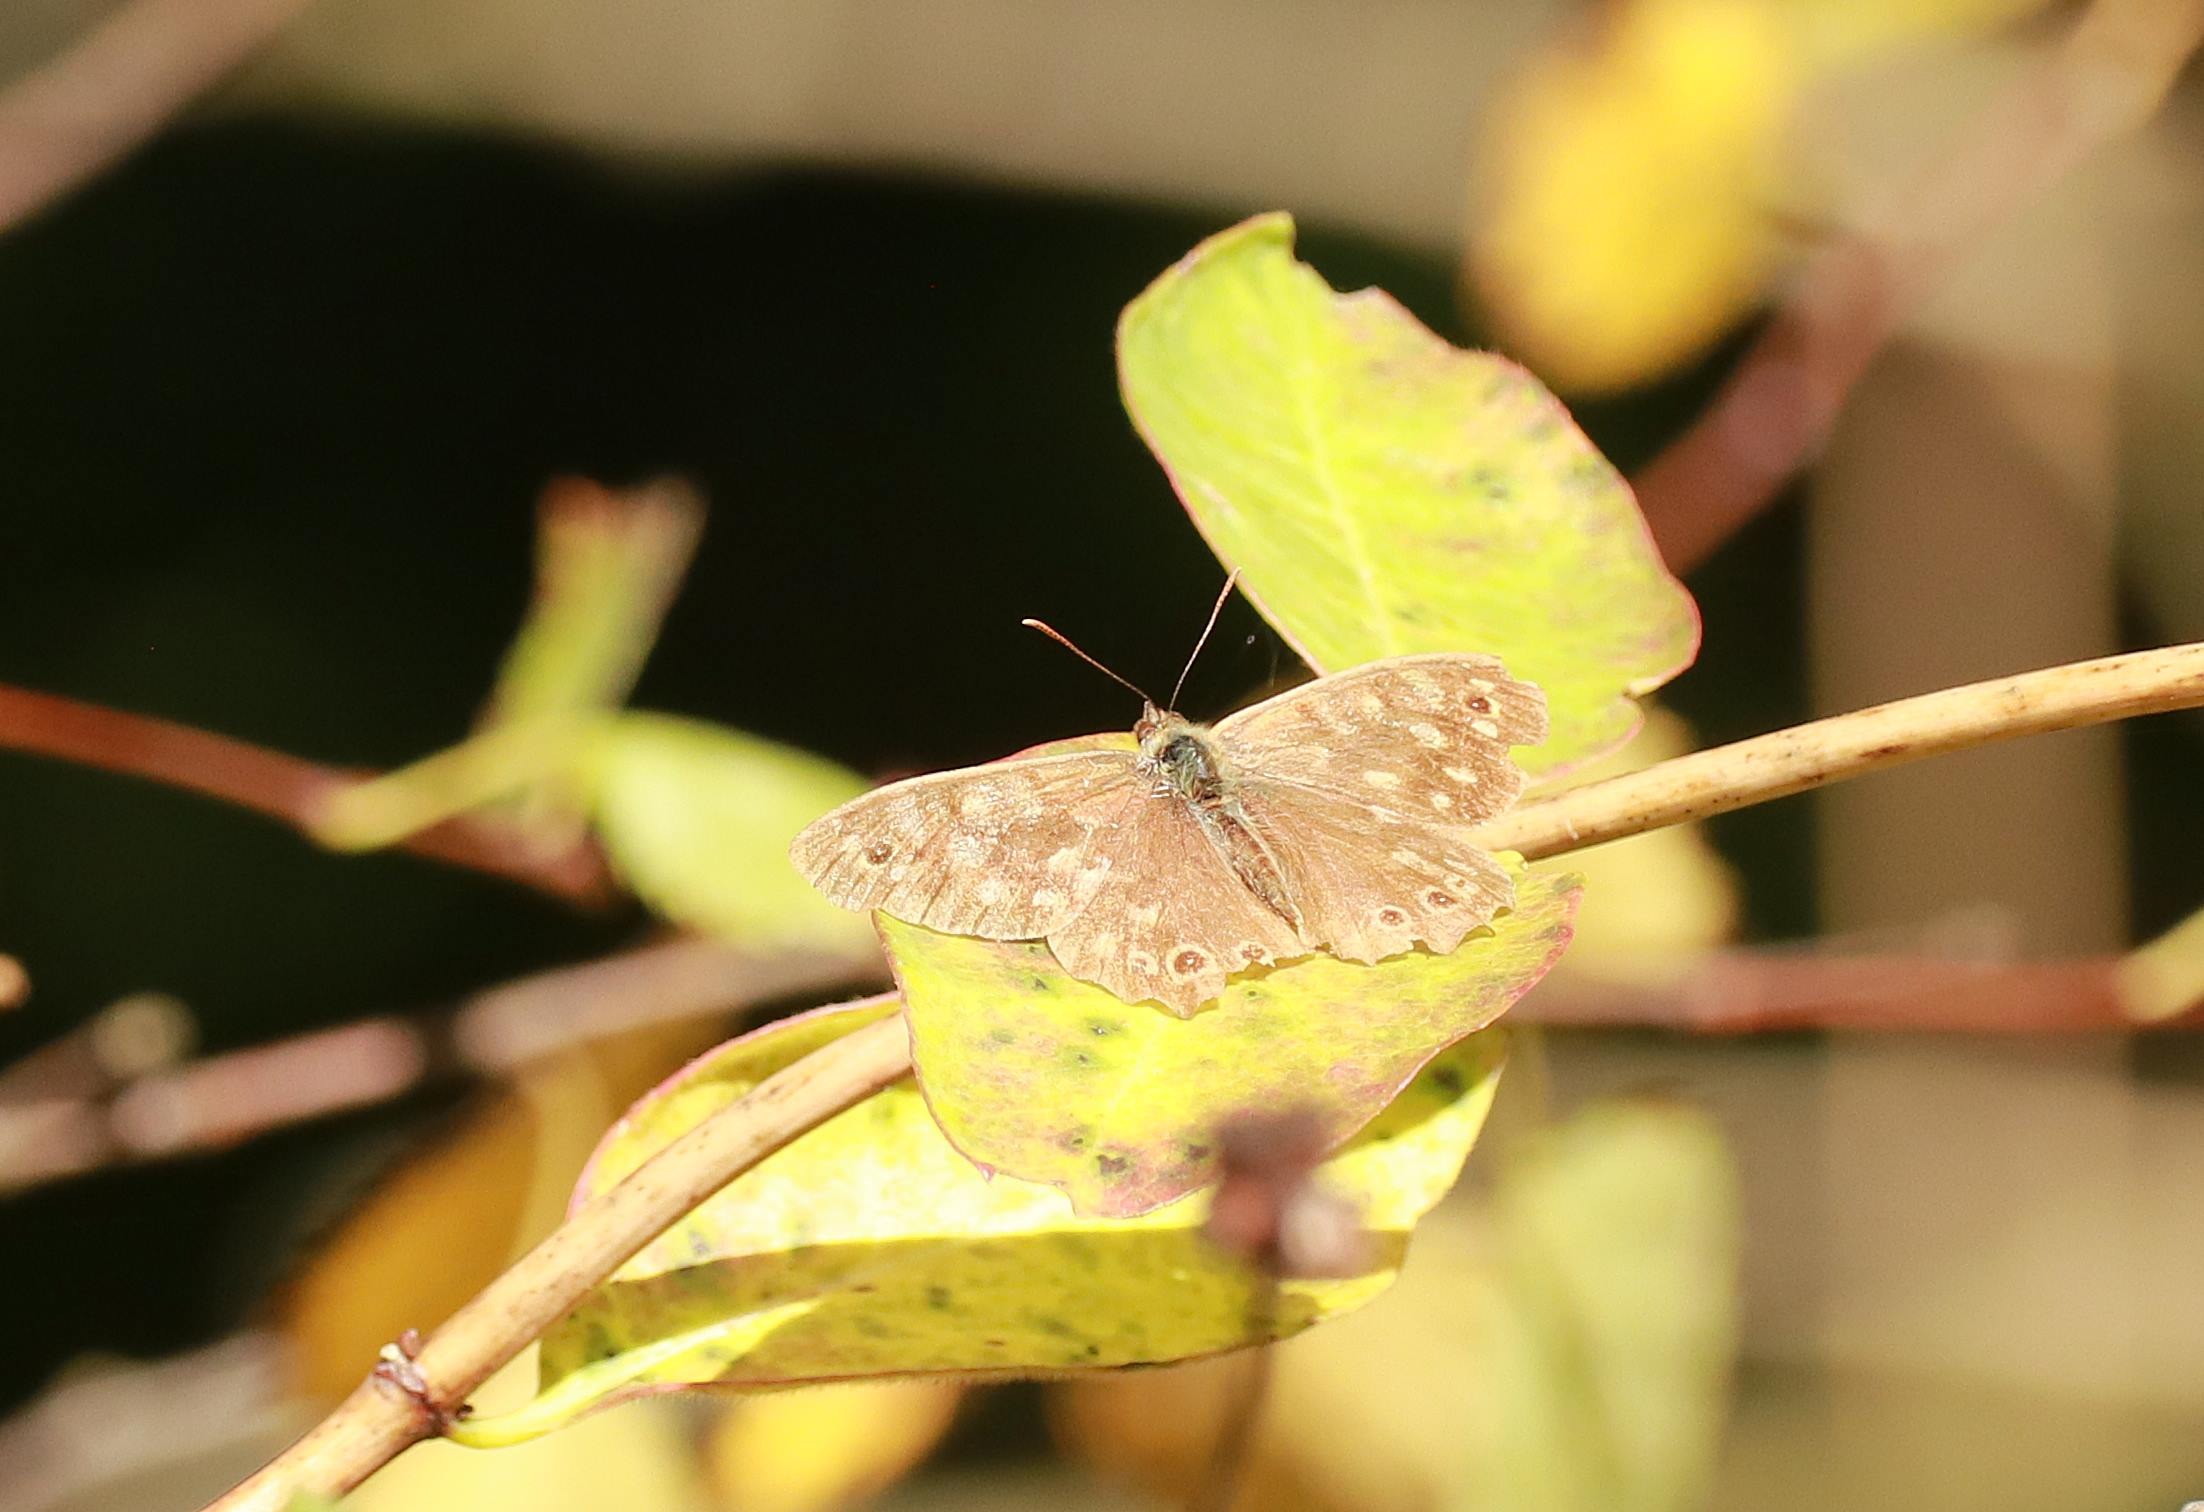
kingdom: Animalia
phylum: Arthropoda
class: Insecta
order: Lepidoptera
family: Nymphalidae
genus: Pararge
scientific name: Pararge aegeria
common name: Skovrandøje
